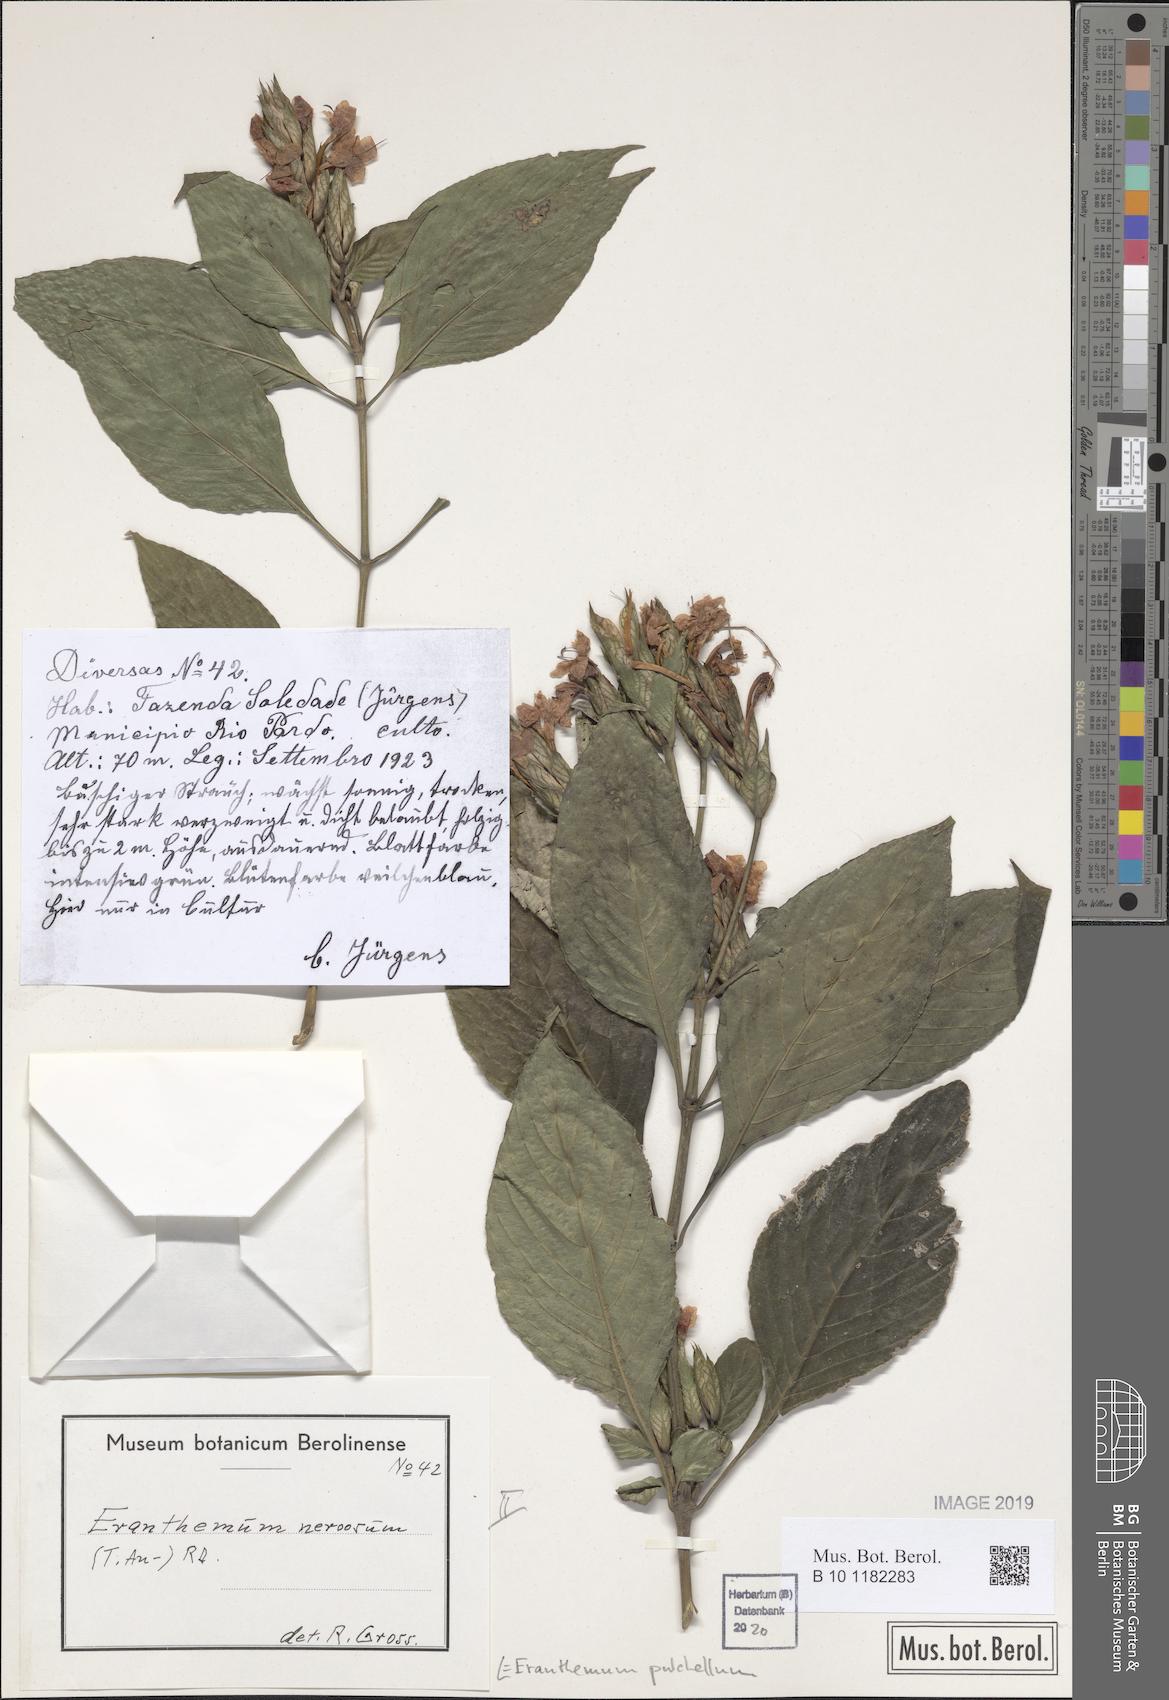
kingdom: Plantae
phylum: Tracheophyta
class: Magnoliopsida
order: Lamiales
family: Acanthaceae
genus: Eranthemum
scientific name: Eranthemum pulchellum
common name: Blue-sage
